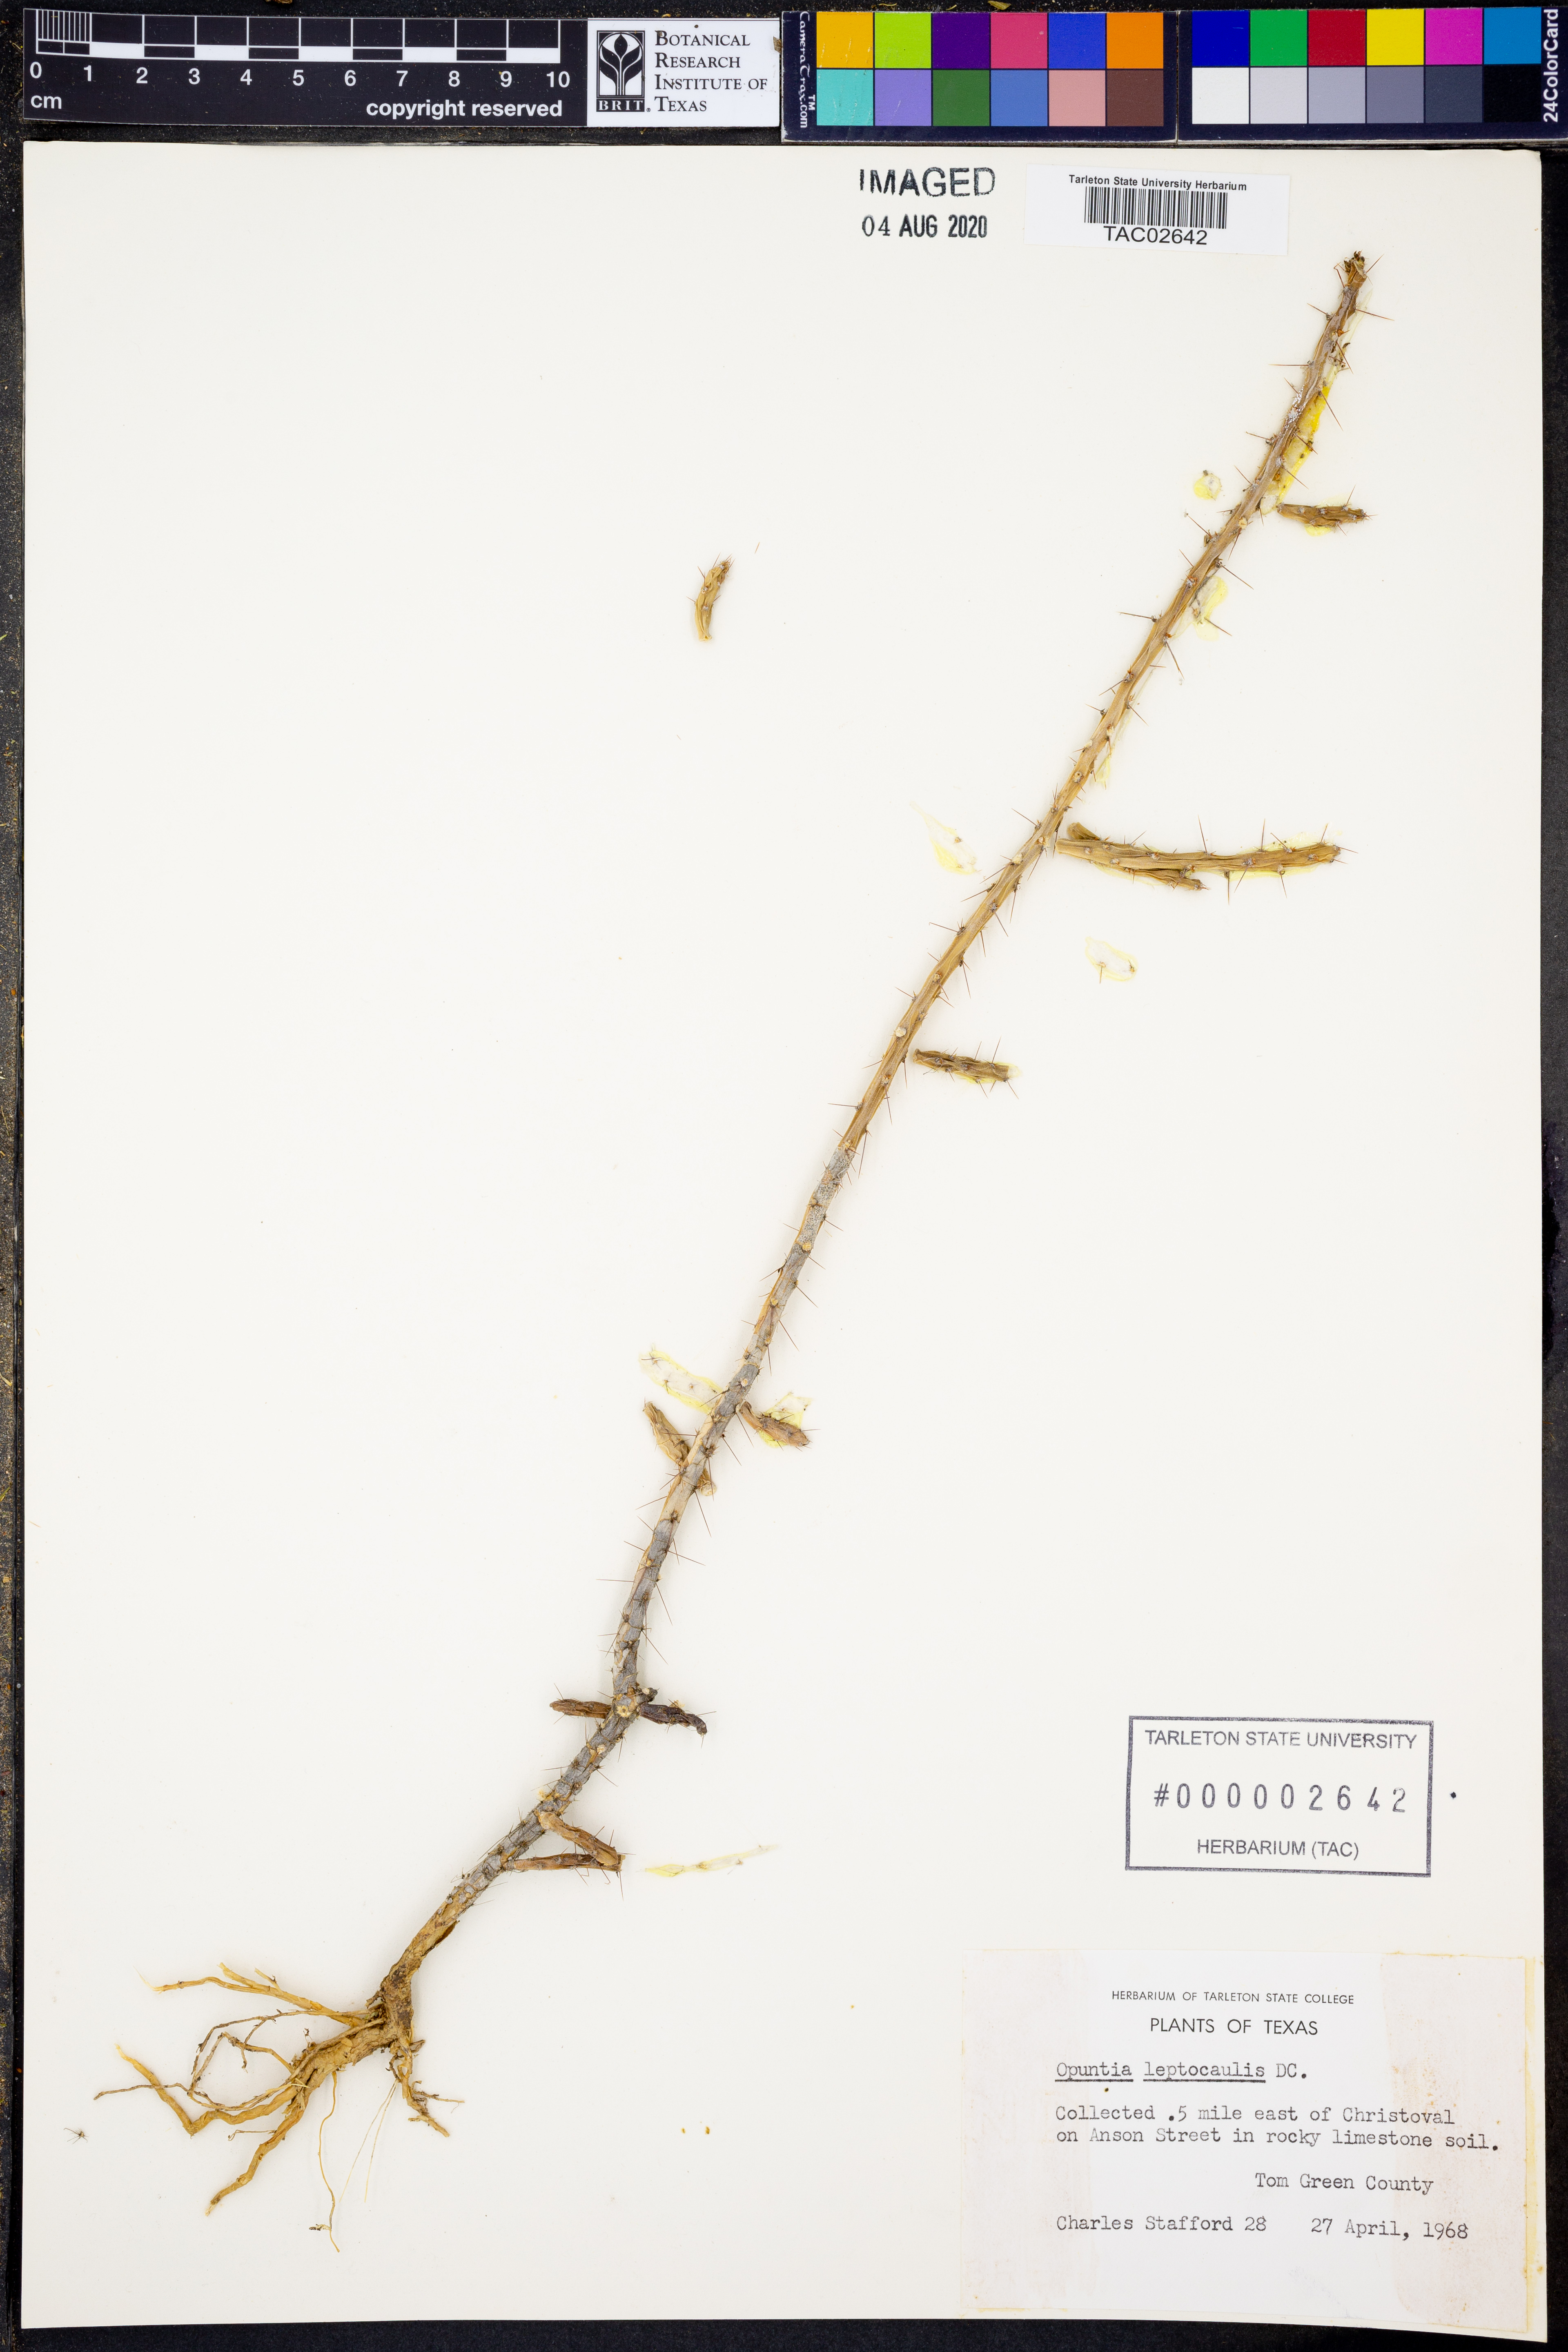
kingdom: Plantae
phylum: Tracheophyta
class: Magnoliopsida
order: Caryophyllales
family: Cactaceae
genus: Cylindropuntia
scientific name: Cylindropuntia leptocaulis
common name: Christmas cactus
